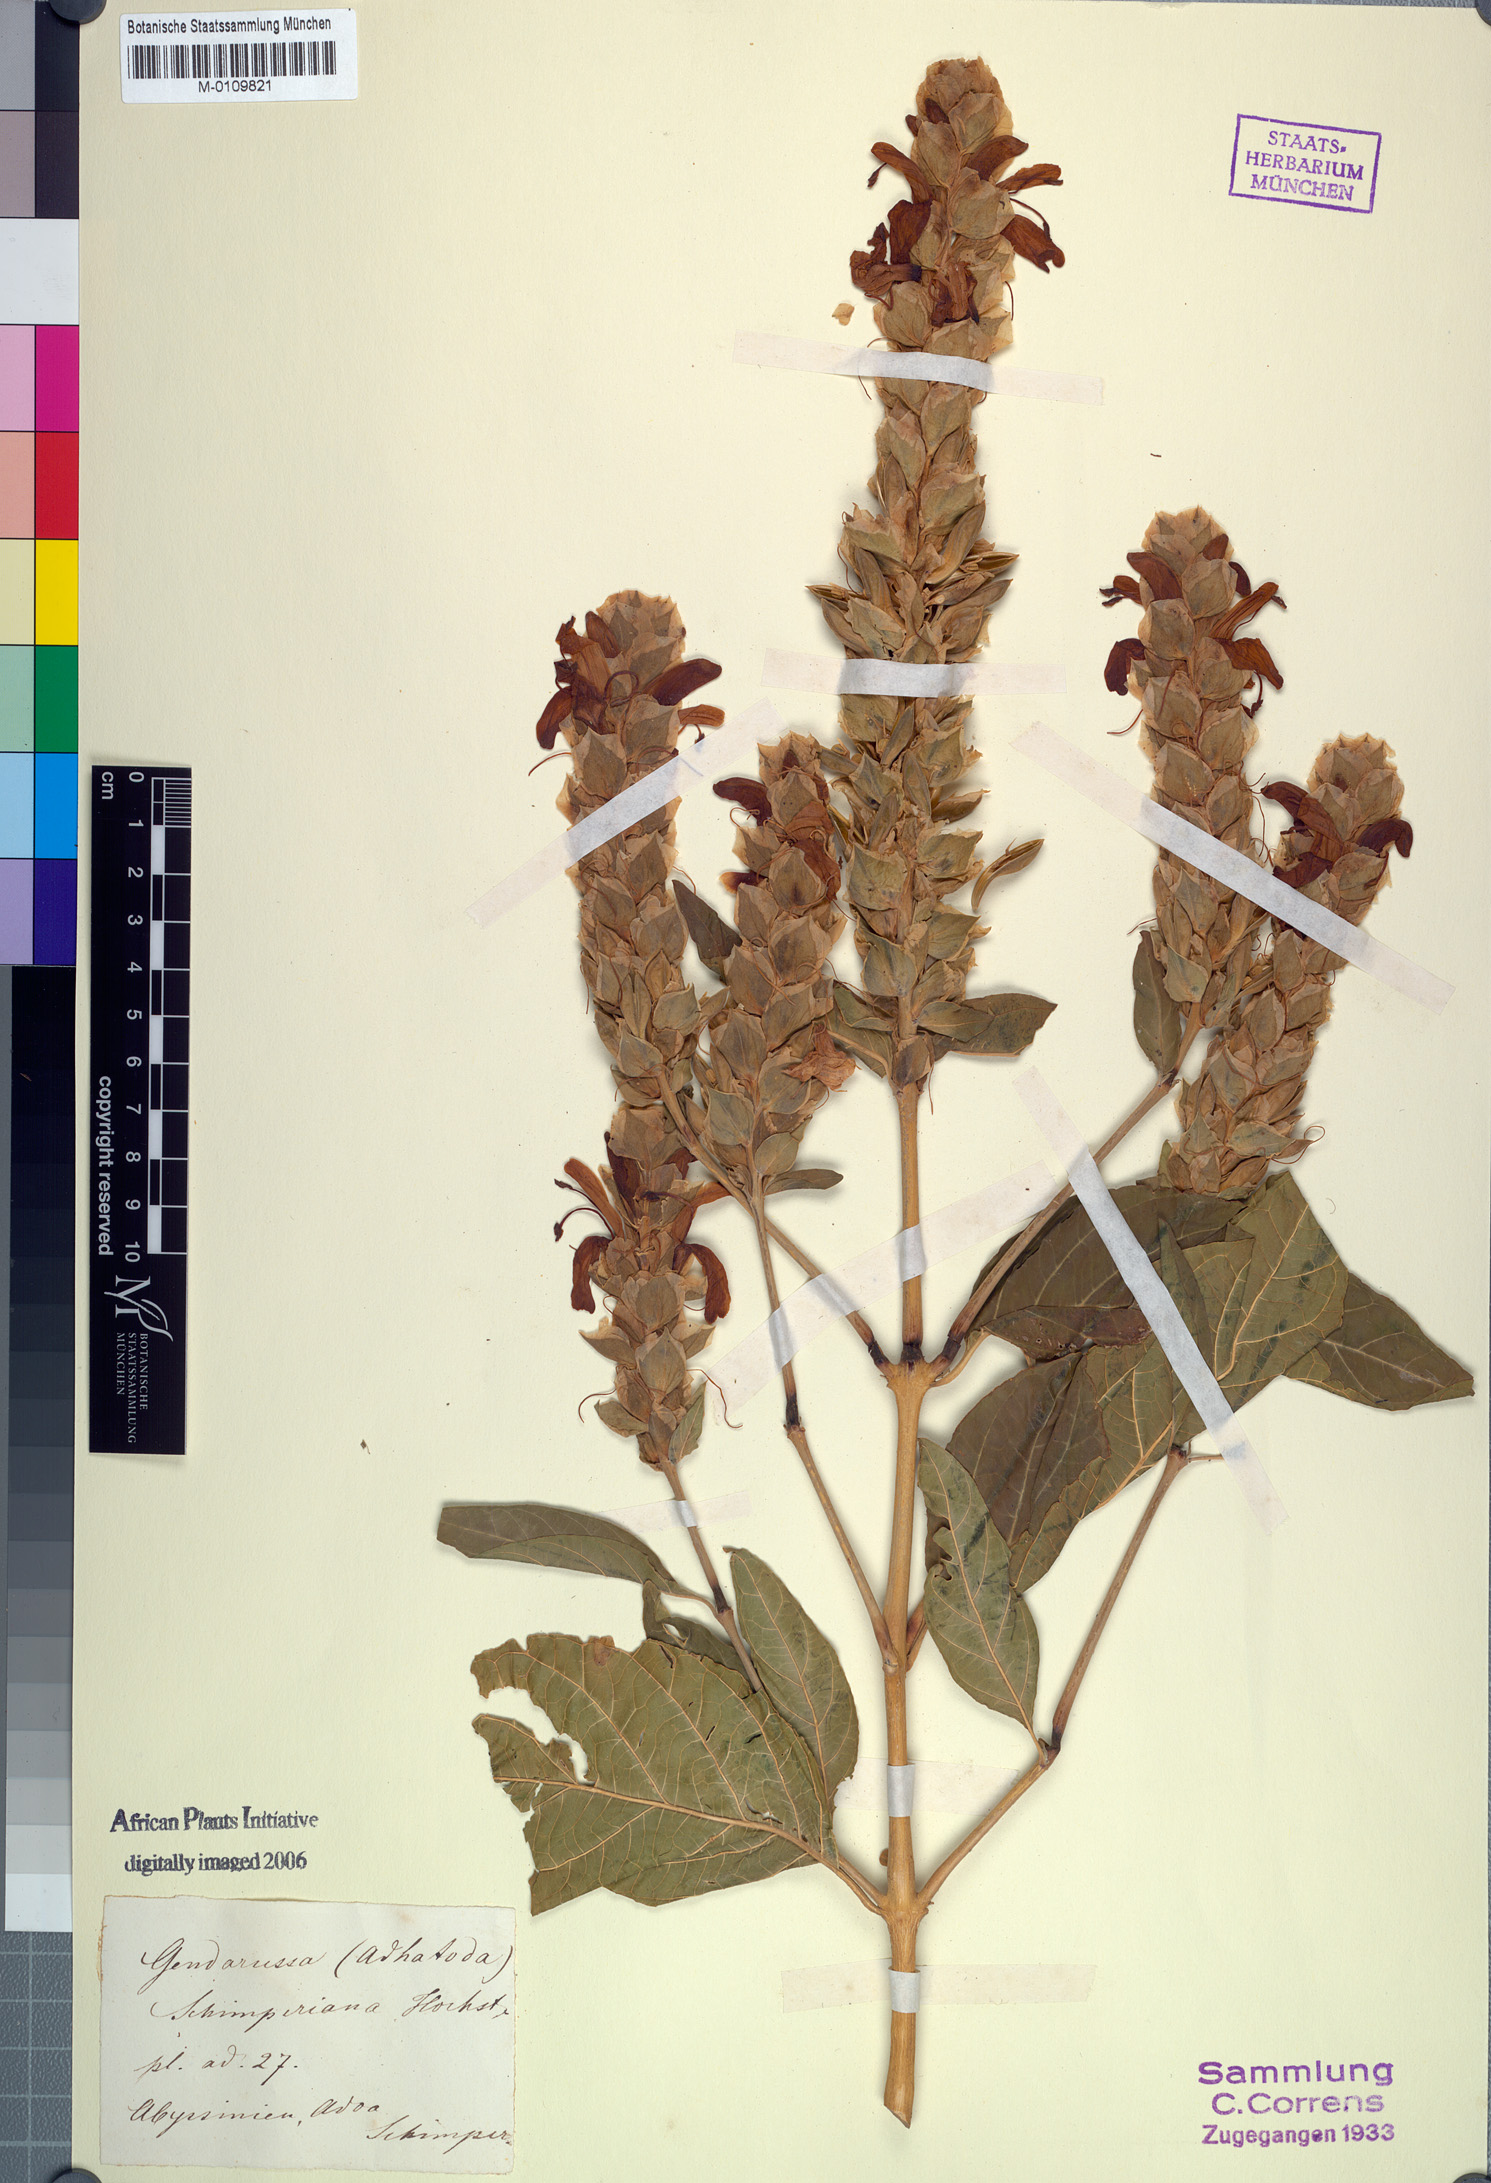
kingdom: Plantae
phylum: Tracheophyta
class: Magnoliopsida
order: Lamiales
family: Acanthaceae
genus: Justicia
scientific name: Justicia schimperiana
